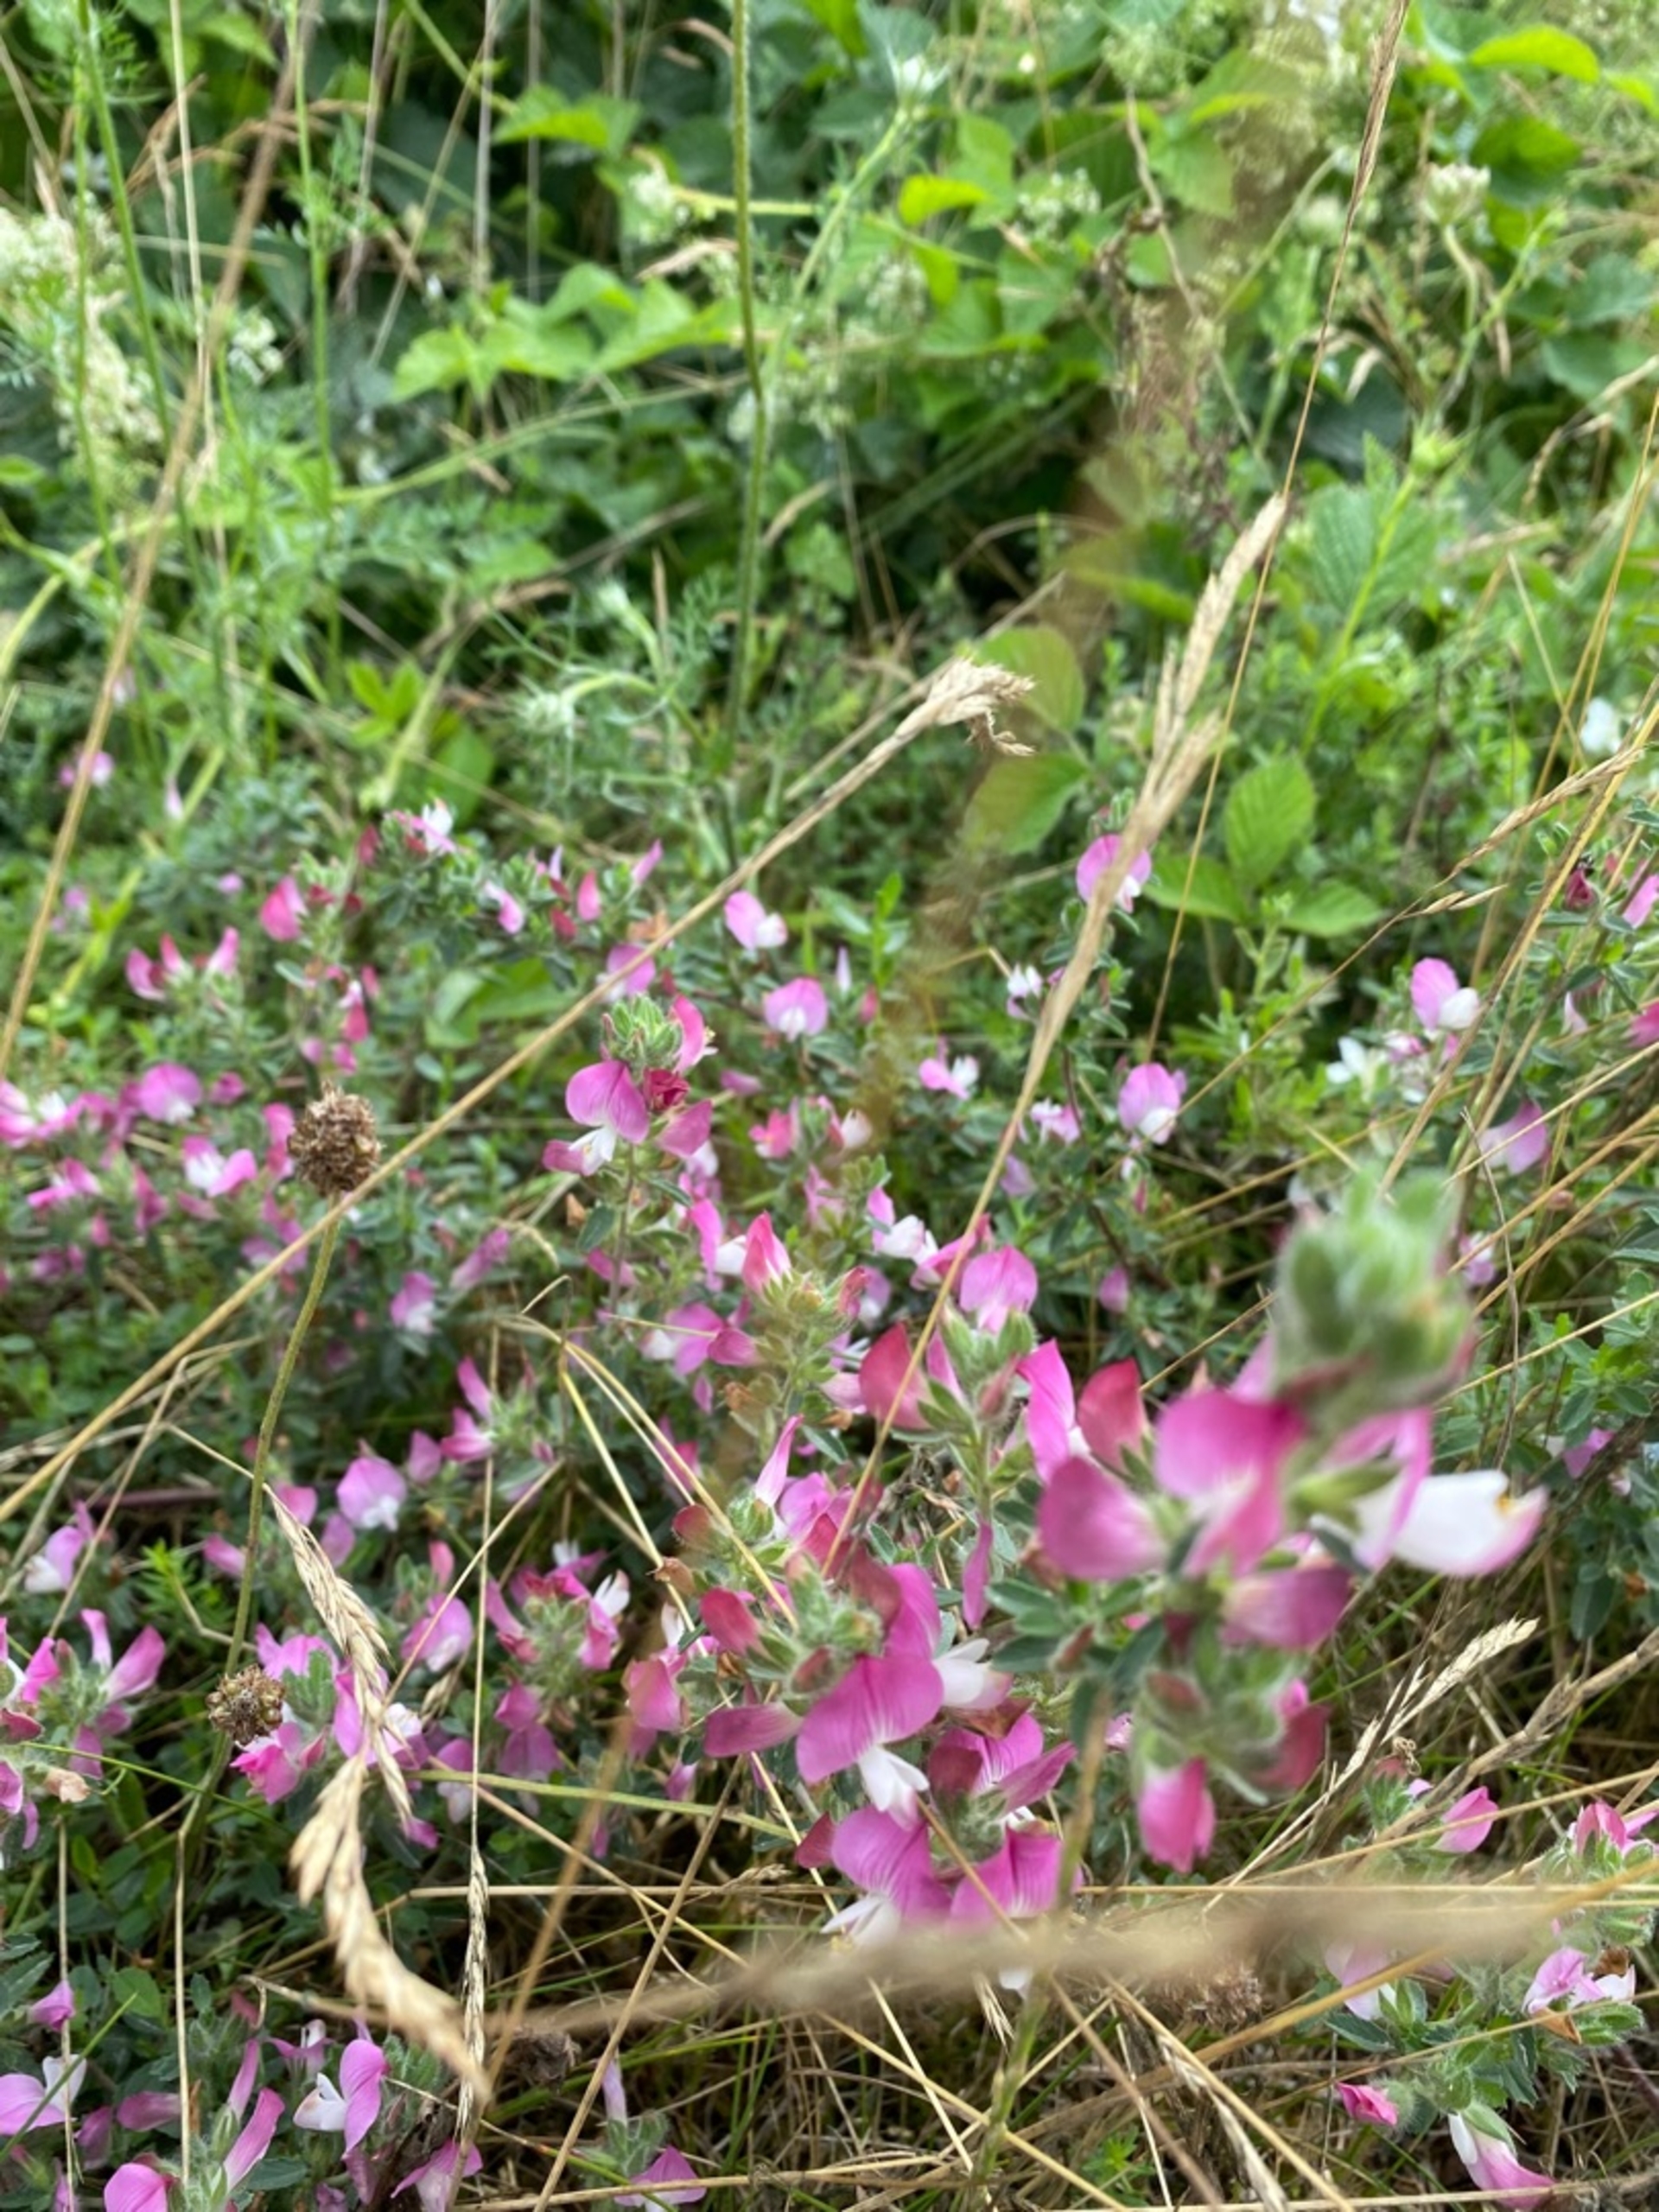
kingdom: Plantae
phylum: Tracheophyta
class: Magnoliopsida
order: Fabales
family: Fabaceae
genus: Ononis
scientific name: Ononis spinosa
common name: Mark-krageklo
